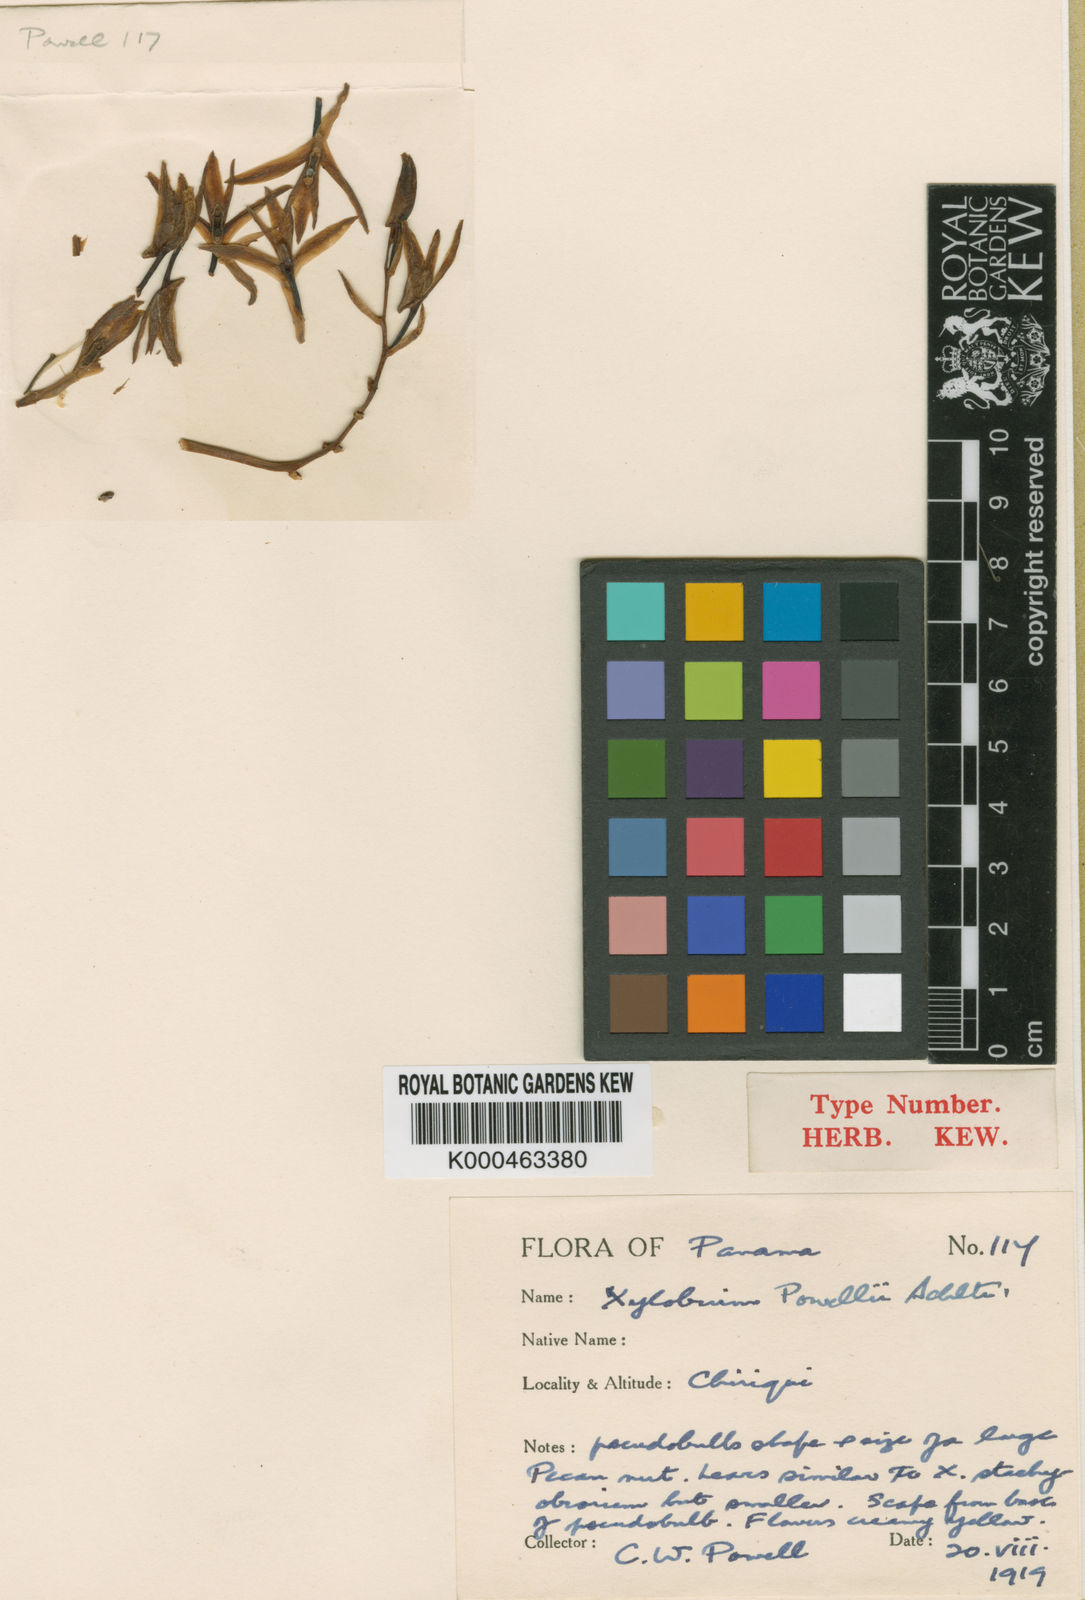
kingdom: Plantae
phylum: Tracheophyta
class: Liliopsida
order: Asparagales
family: Orchidaceae
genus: Xylobium
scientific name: Xylobium sulfurinum
